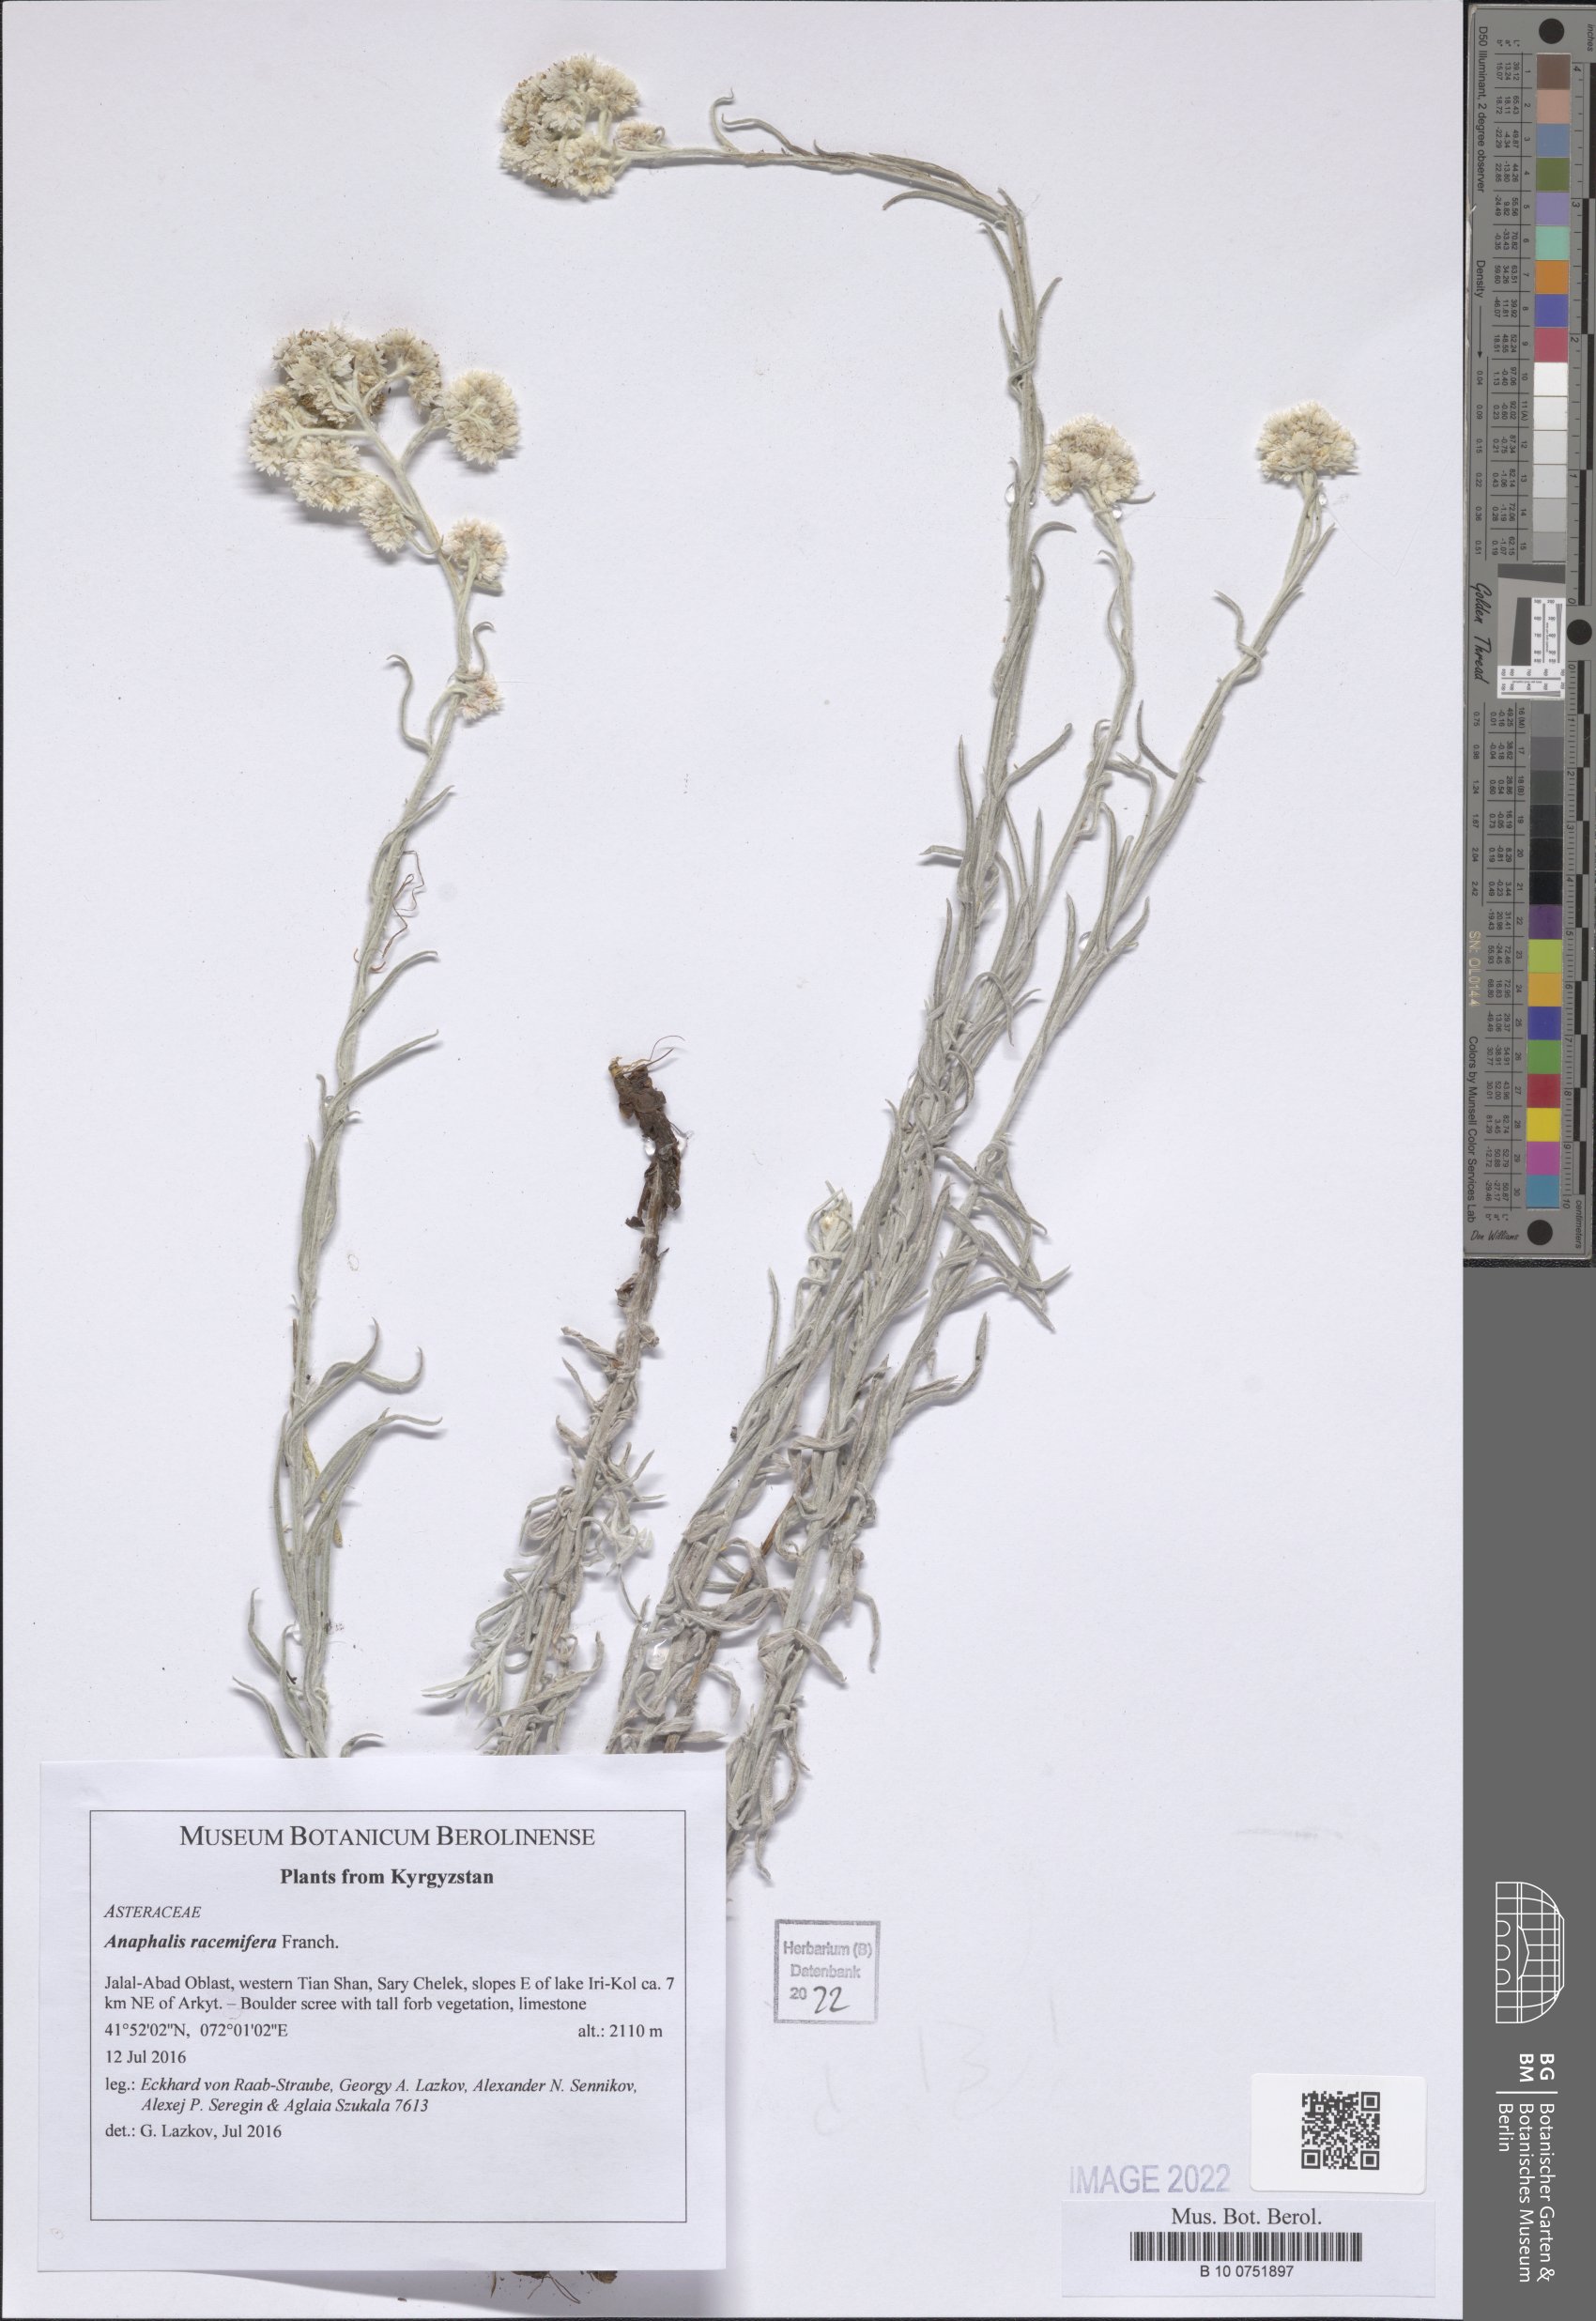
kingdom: Plantae
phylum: Tracheophyta
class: Magnoliopsida
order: Asterales
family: Asteraceae
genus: Anaphalis
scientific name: Anaphalis racemifera
